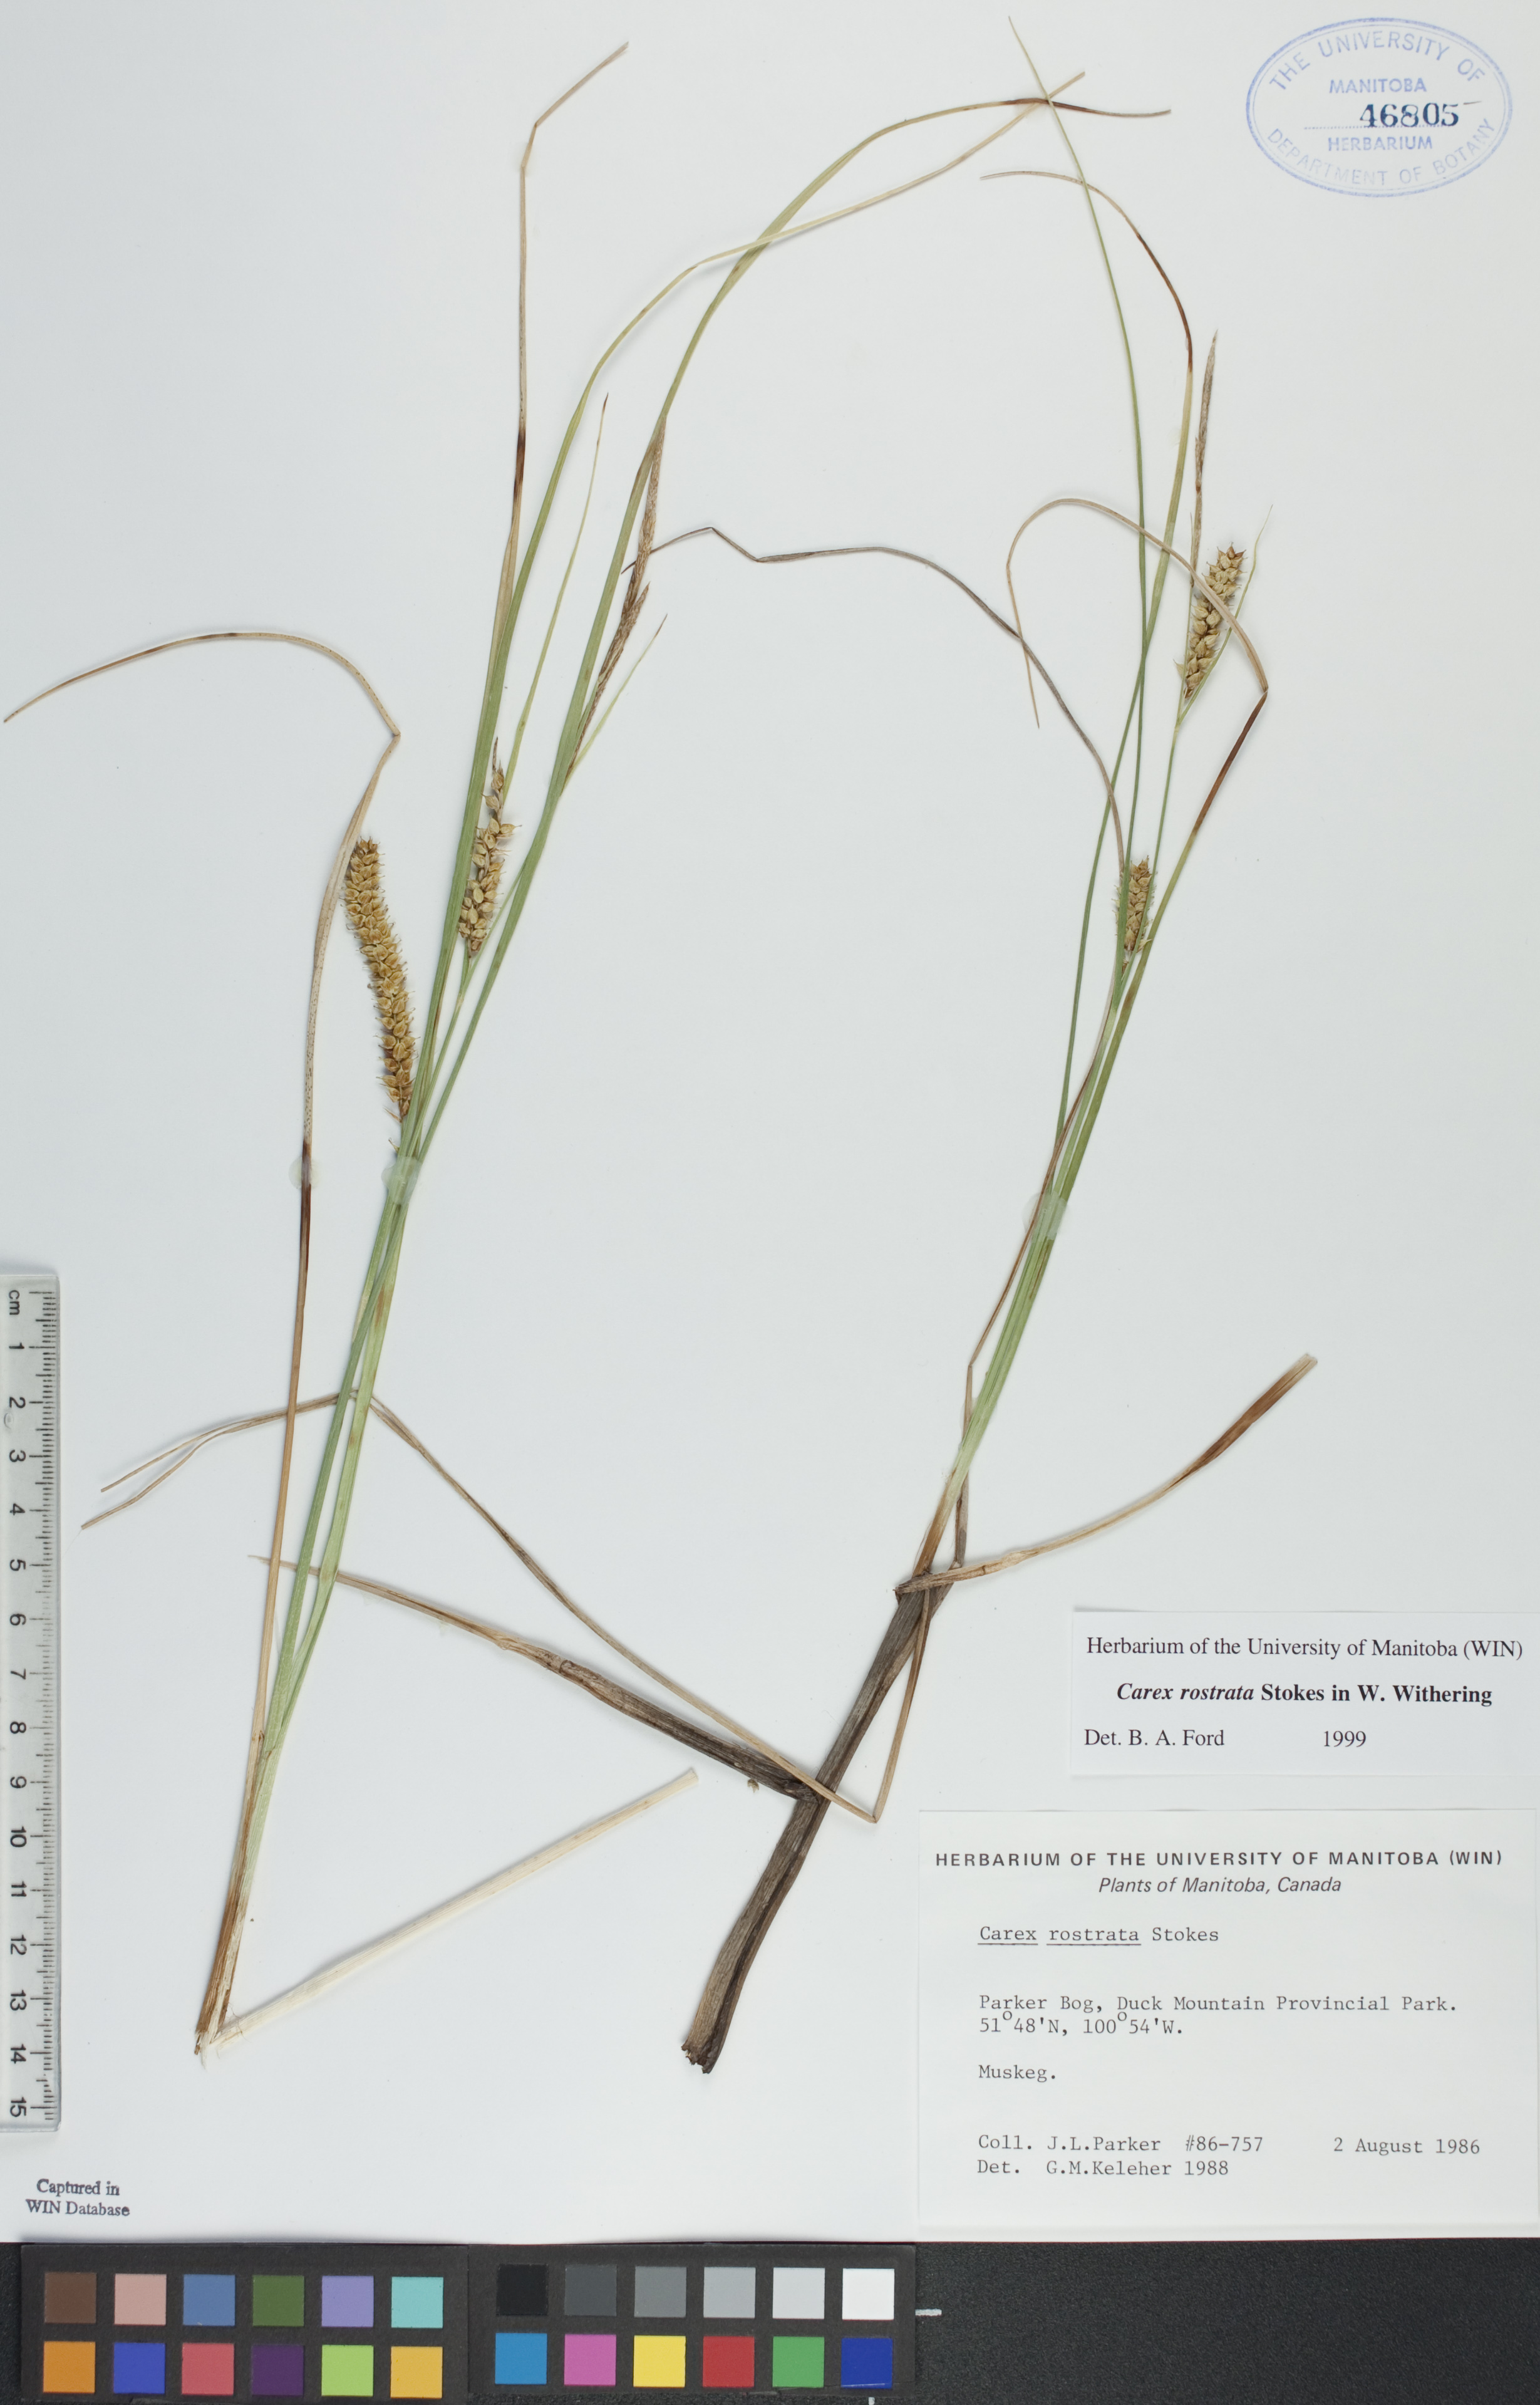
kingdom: Plantae
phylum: Tracheophyta
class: Liliopsida
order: Poales
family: Cyperaceae
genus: Carex
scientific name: Carex rostrata
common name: Bottle sedge
